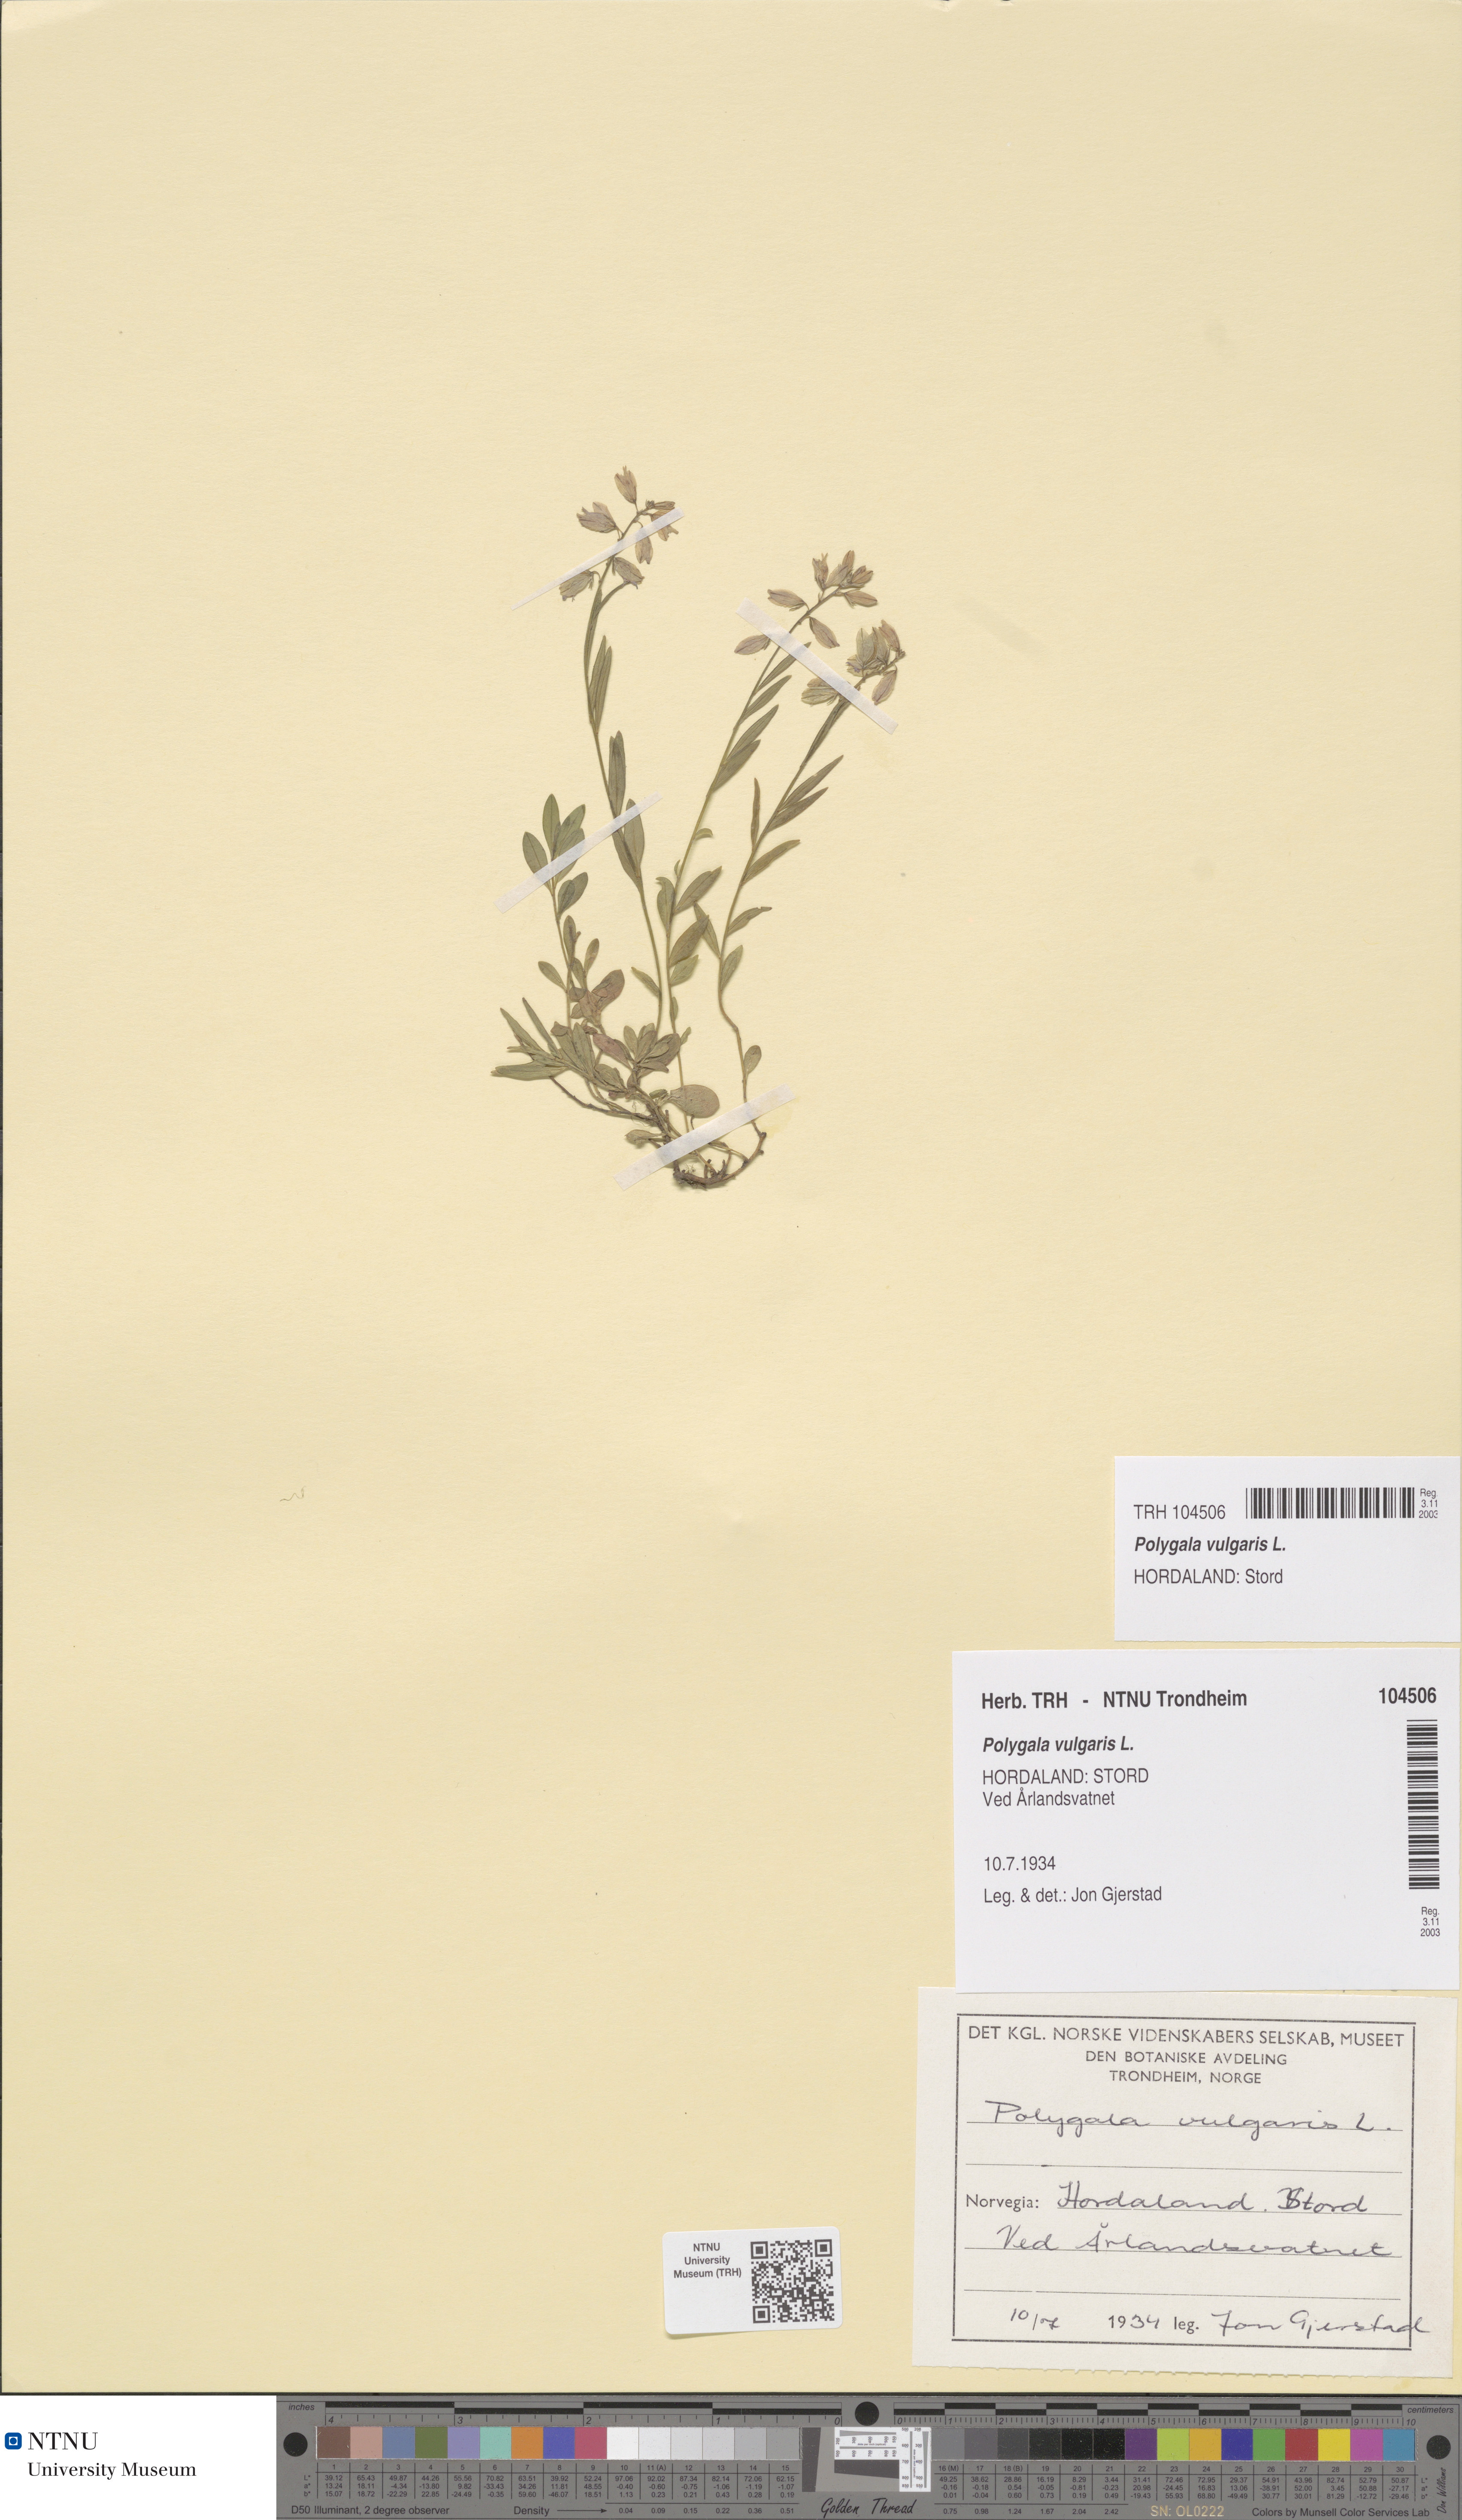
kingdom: Plantae
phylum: Tracheophyta
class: Magnoliopsida
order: Fabales
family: Polygalaceae
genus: Polygala
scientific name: Polygala vulgaris
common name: Common milkwort
